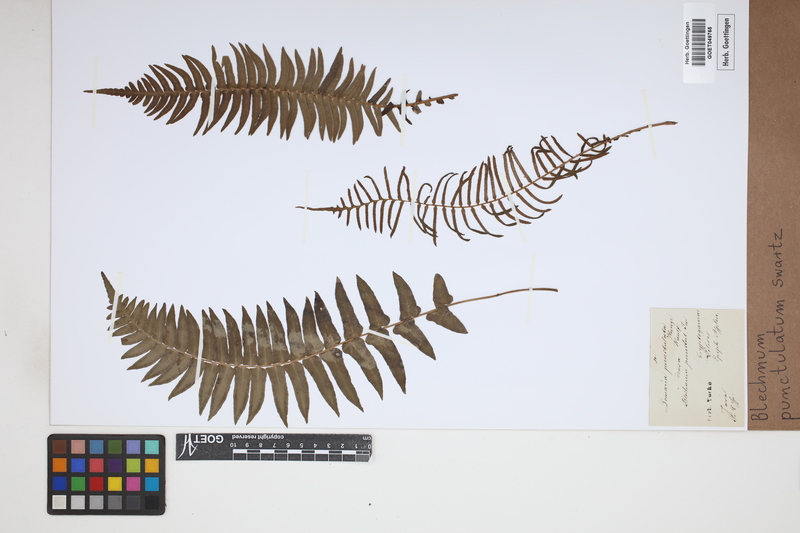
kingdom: Plantae
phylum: Tracheophyta
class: Polypodiopsida
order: Polypodiales
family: Blechnaceae
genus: Blechnum
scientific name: Blechnum punctulatum
